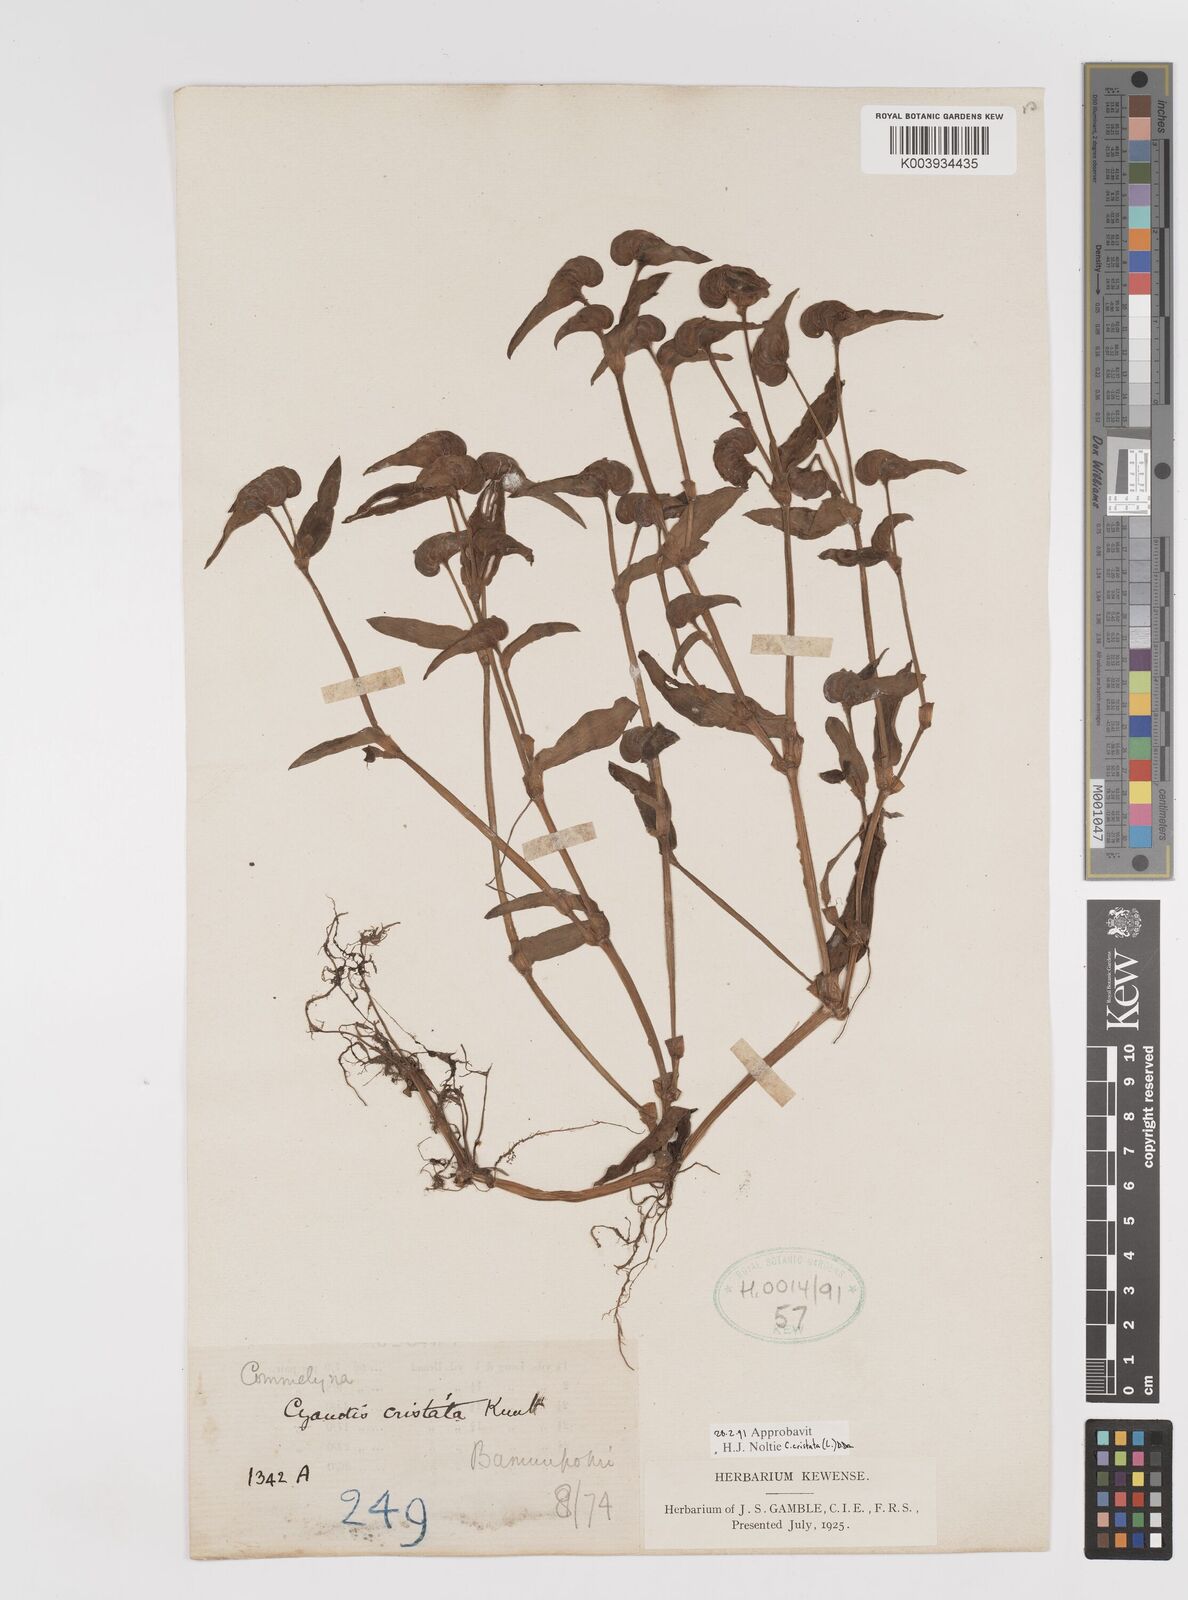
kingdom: Plantae
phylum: Tracheophyta
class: Liliopsida
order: Commelinales
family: Commelinaceae
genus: Cyanotis
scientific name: Cyanotis cristata
